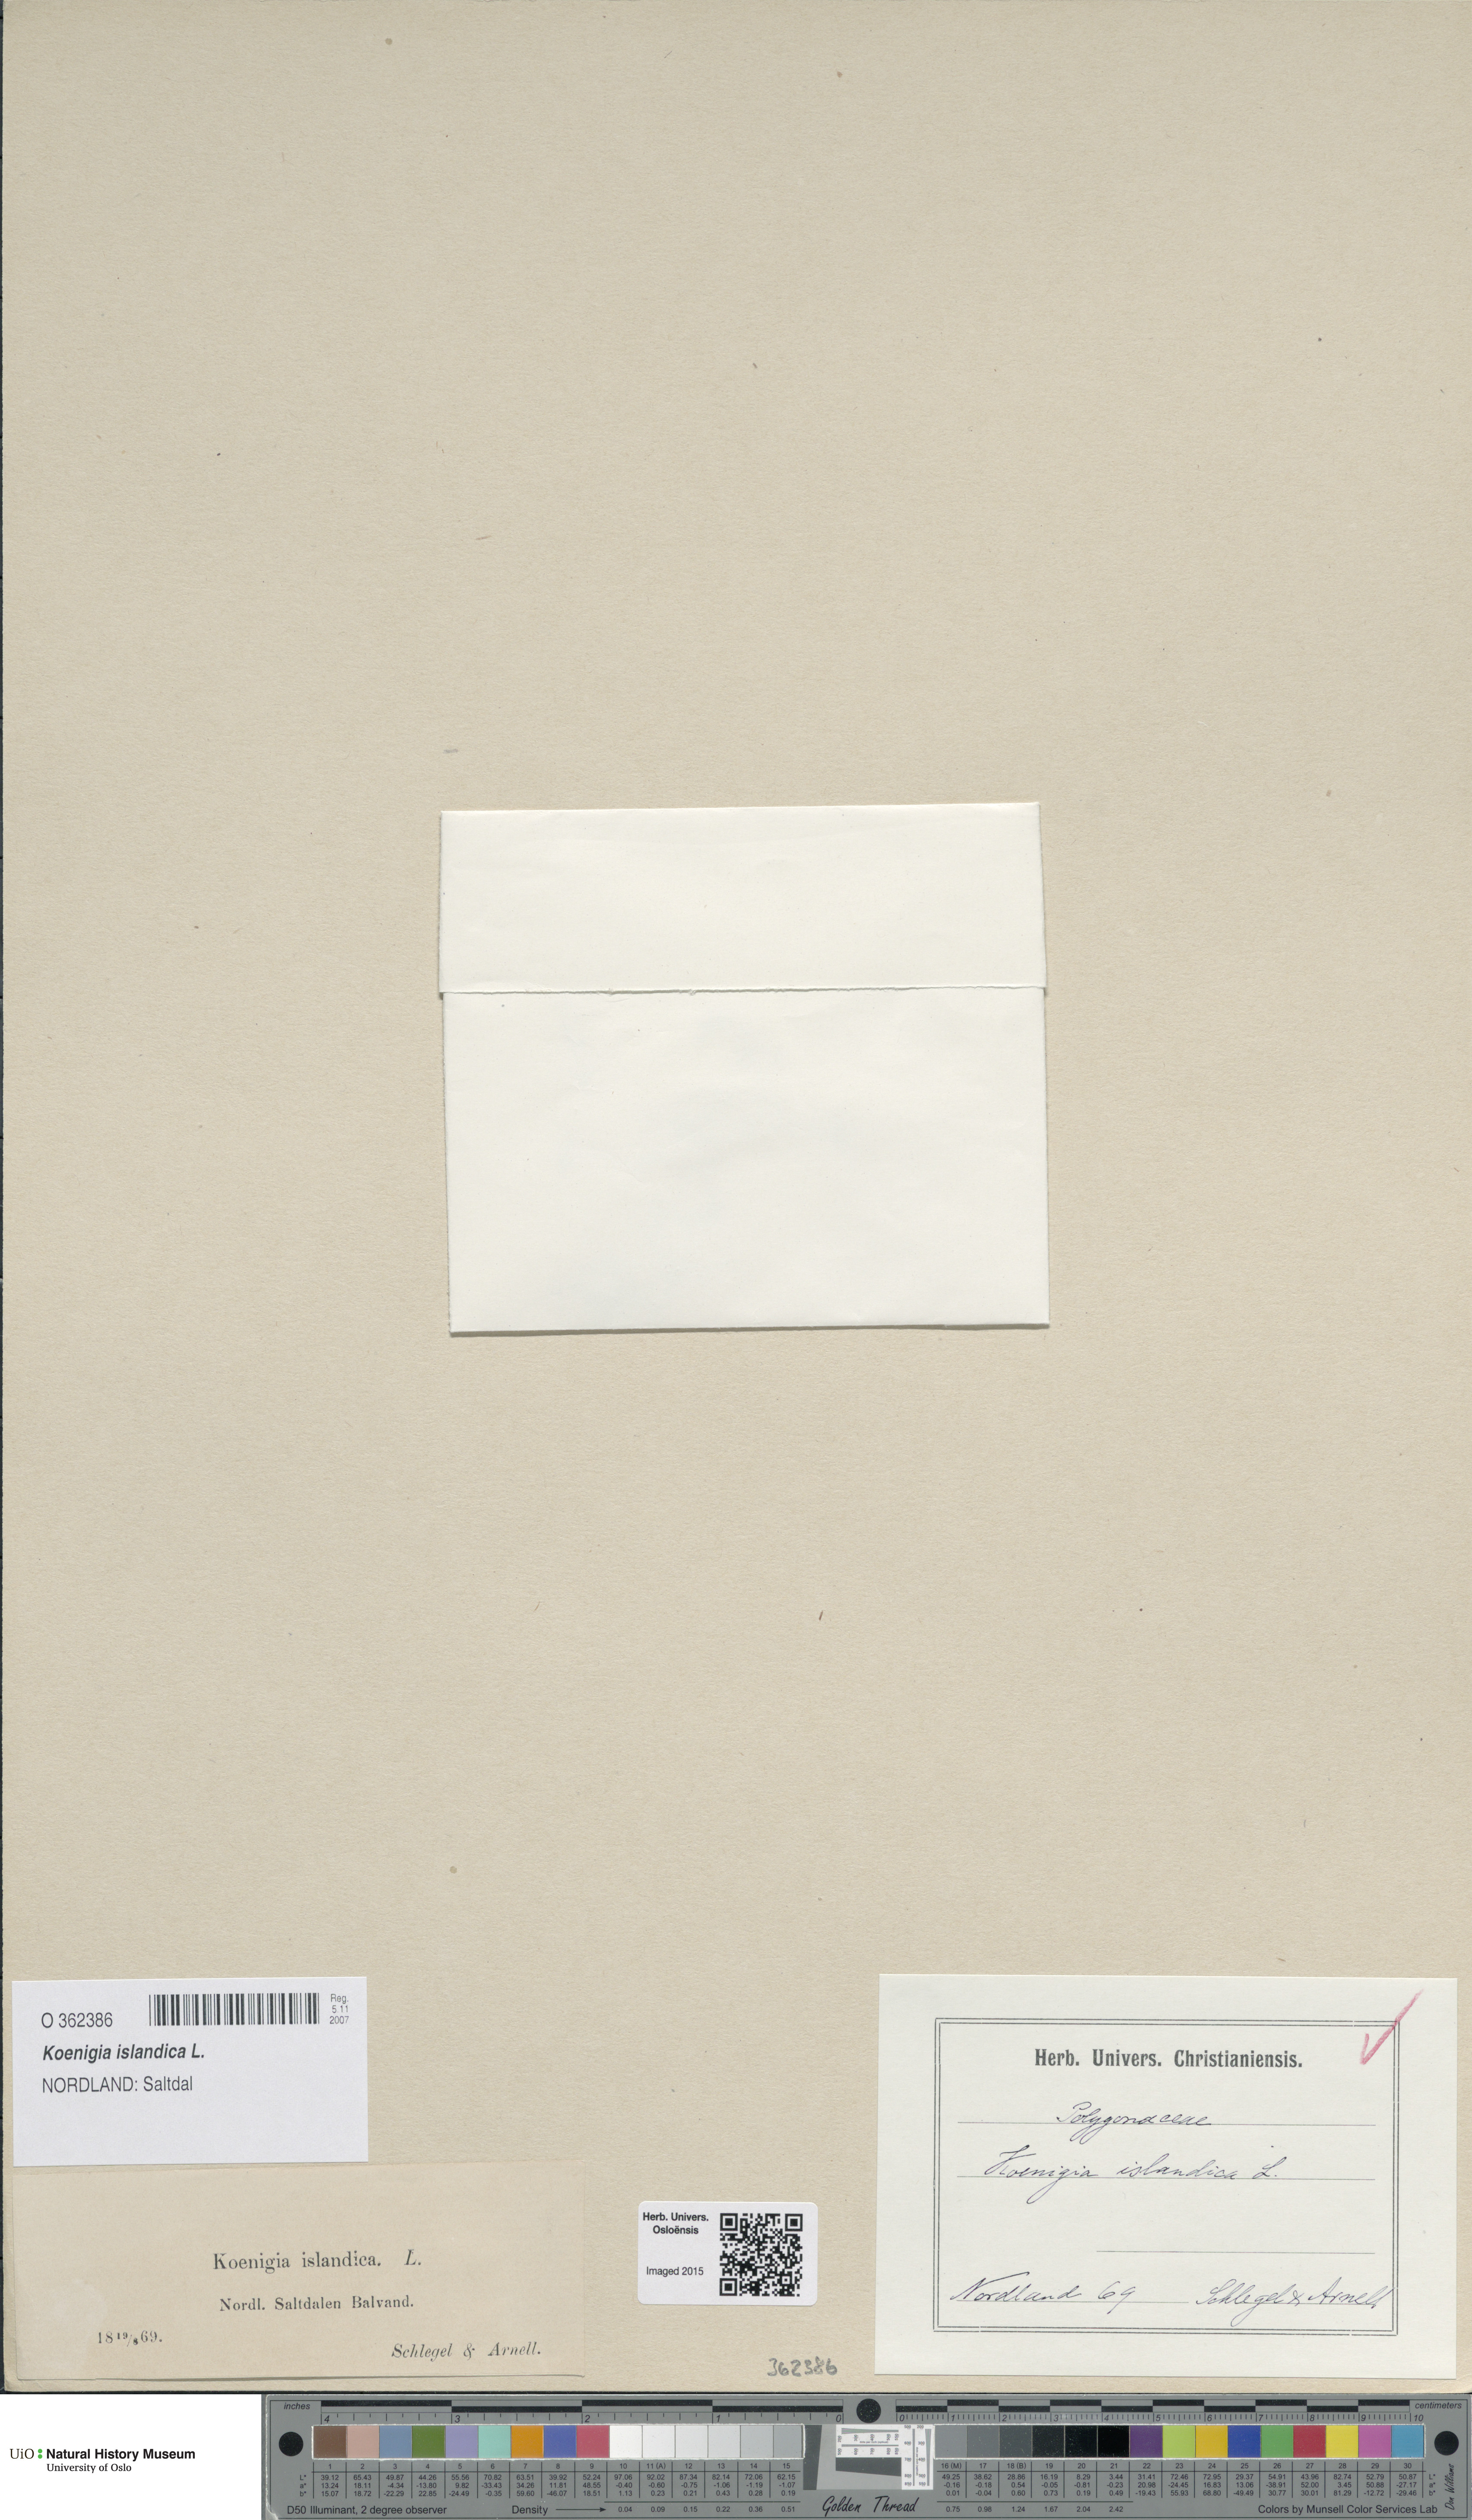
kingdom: Plantae
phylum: Tracheophyta
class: Magnoliopsida
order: Caryophyllales
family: Polygonaceae
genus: Koenigia
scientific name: Koenigia islandica
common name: Iceland-purslane
